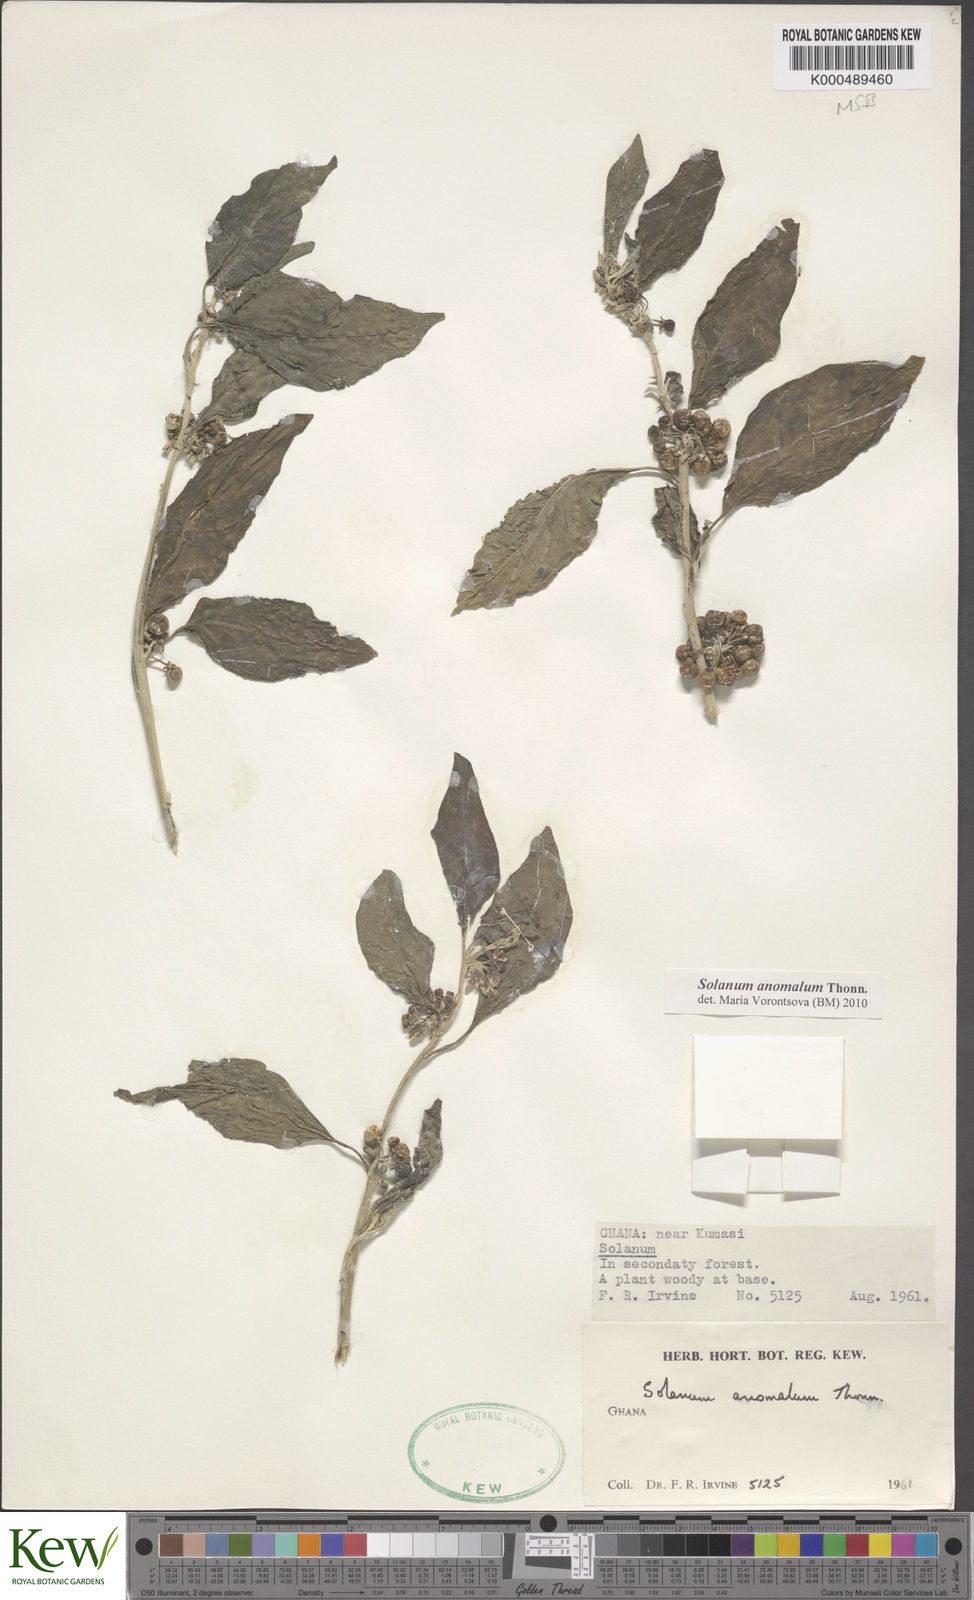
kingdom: Plantae
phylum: Tracheophyta
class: Magnoliopsida
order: Solanales
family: Solanaceae
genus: Solanum
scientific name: Solanum anomalum
